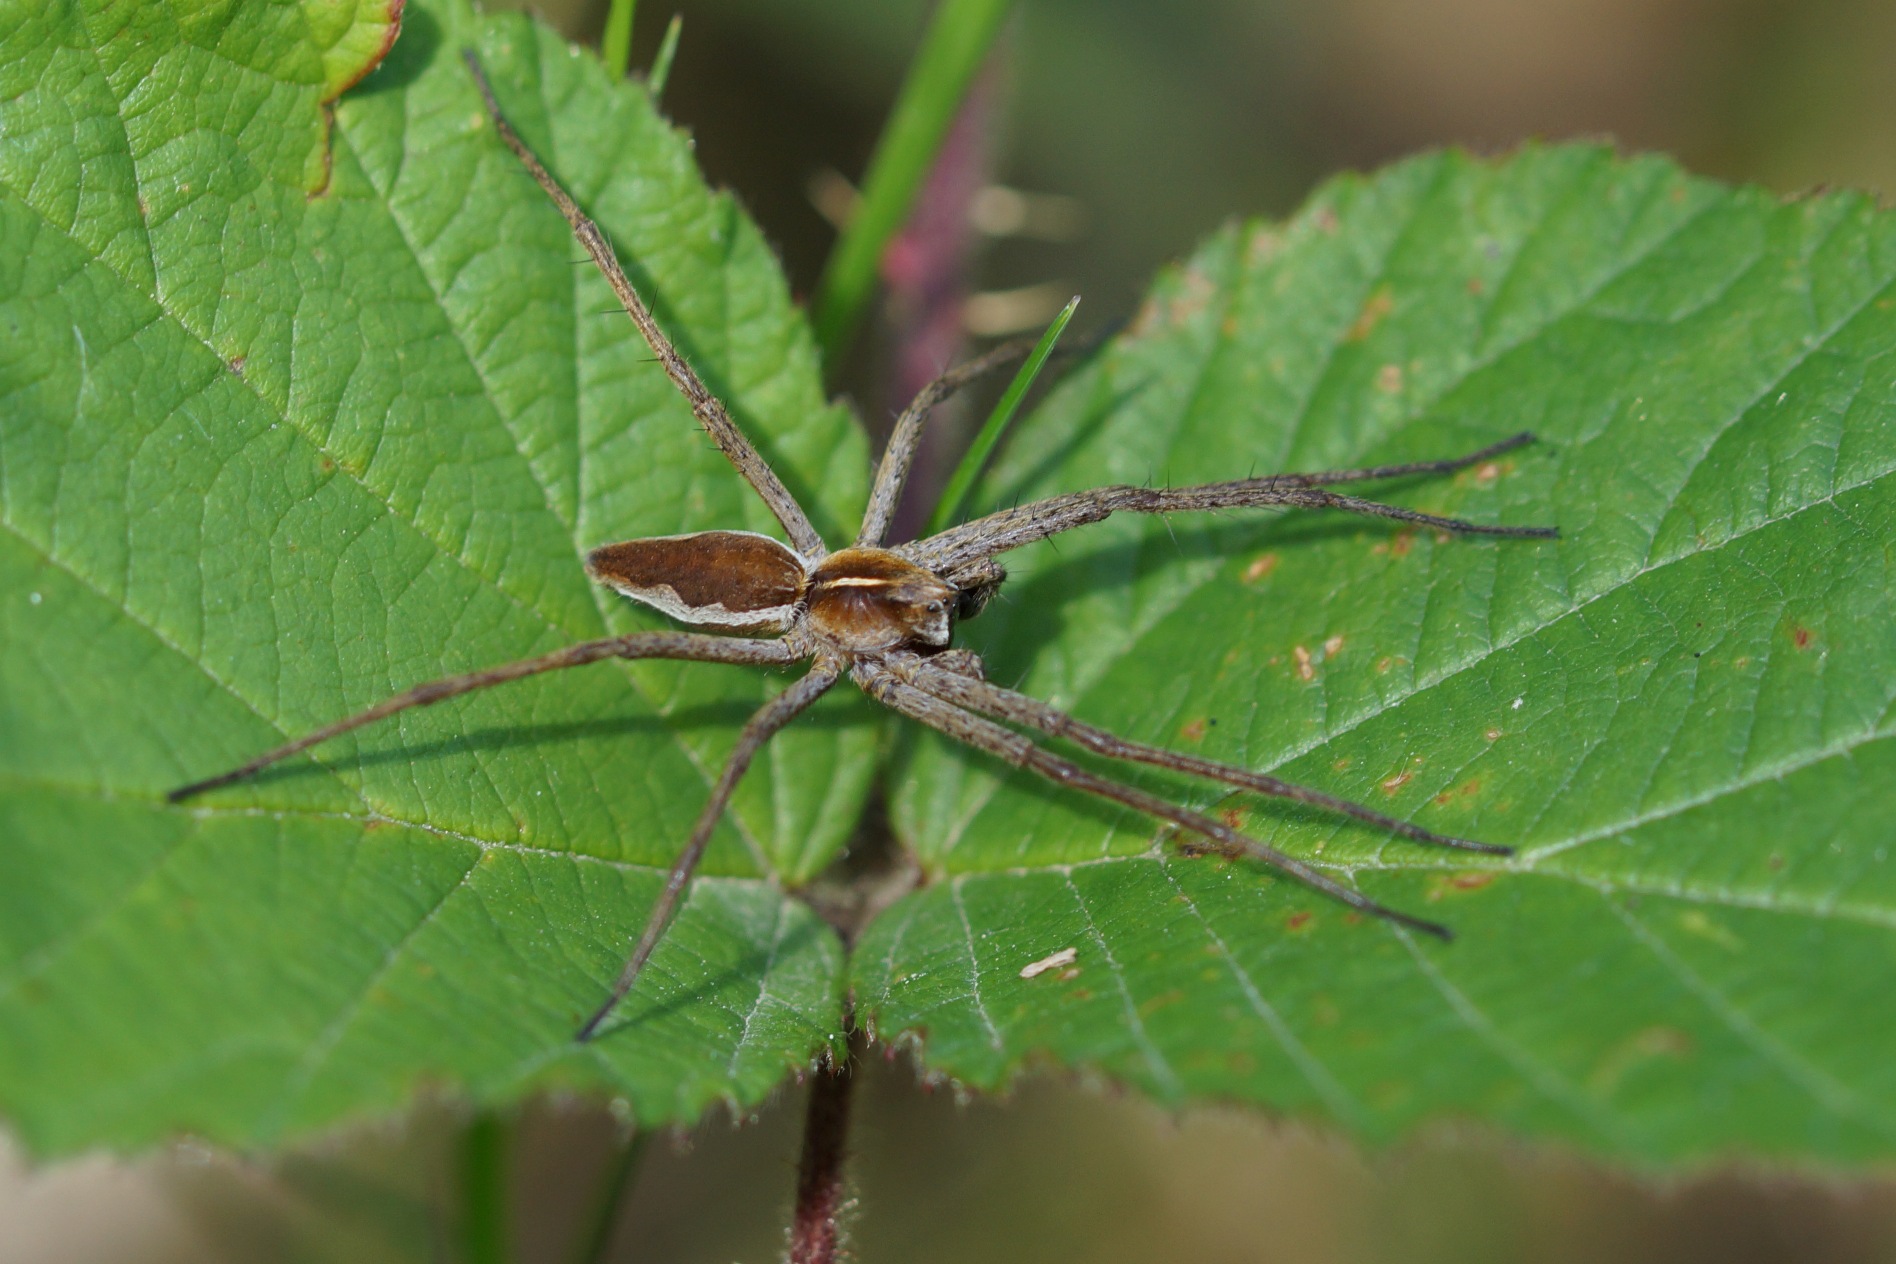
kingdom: Animalia
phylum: Arthropoda
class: Arachnida
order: Araneae
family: Pisauridae
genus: Pisaura
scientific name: Pisaura mirabilis
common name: Almindelig rovedderkop
